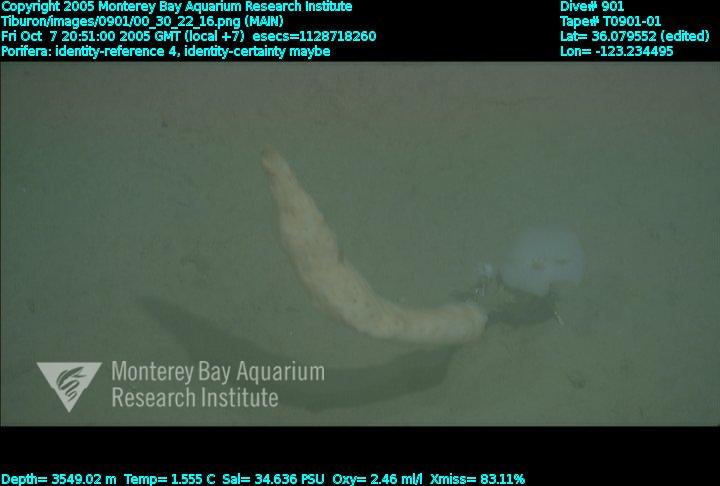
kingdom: Animalia
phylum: Porifera
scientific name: Porifera
